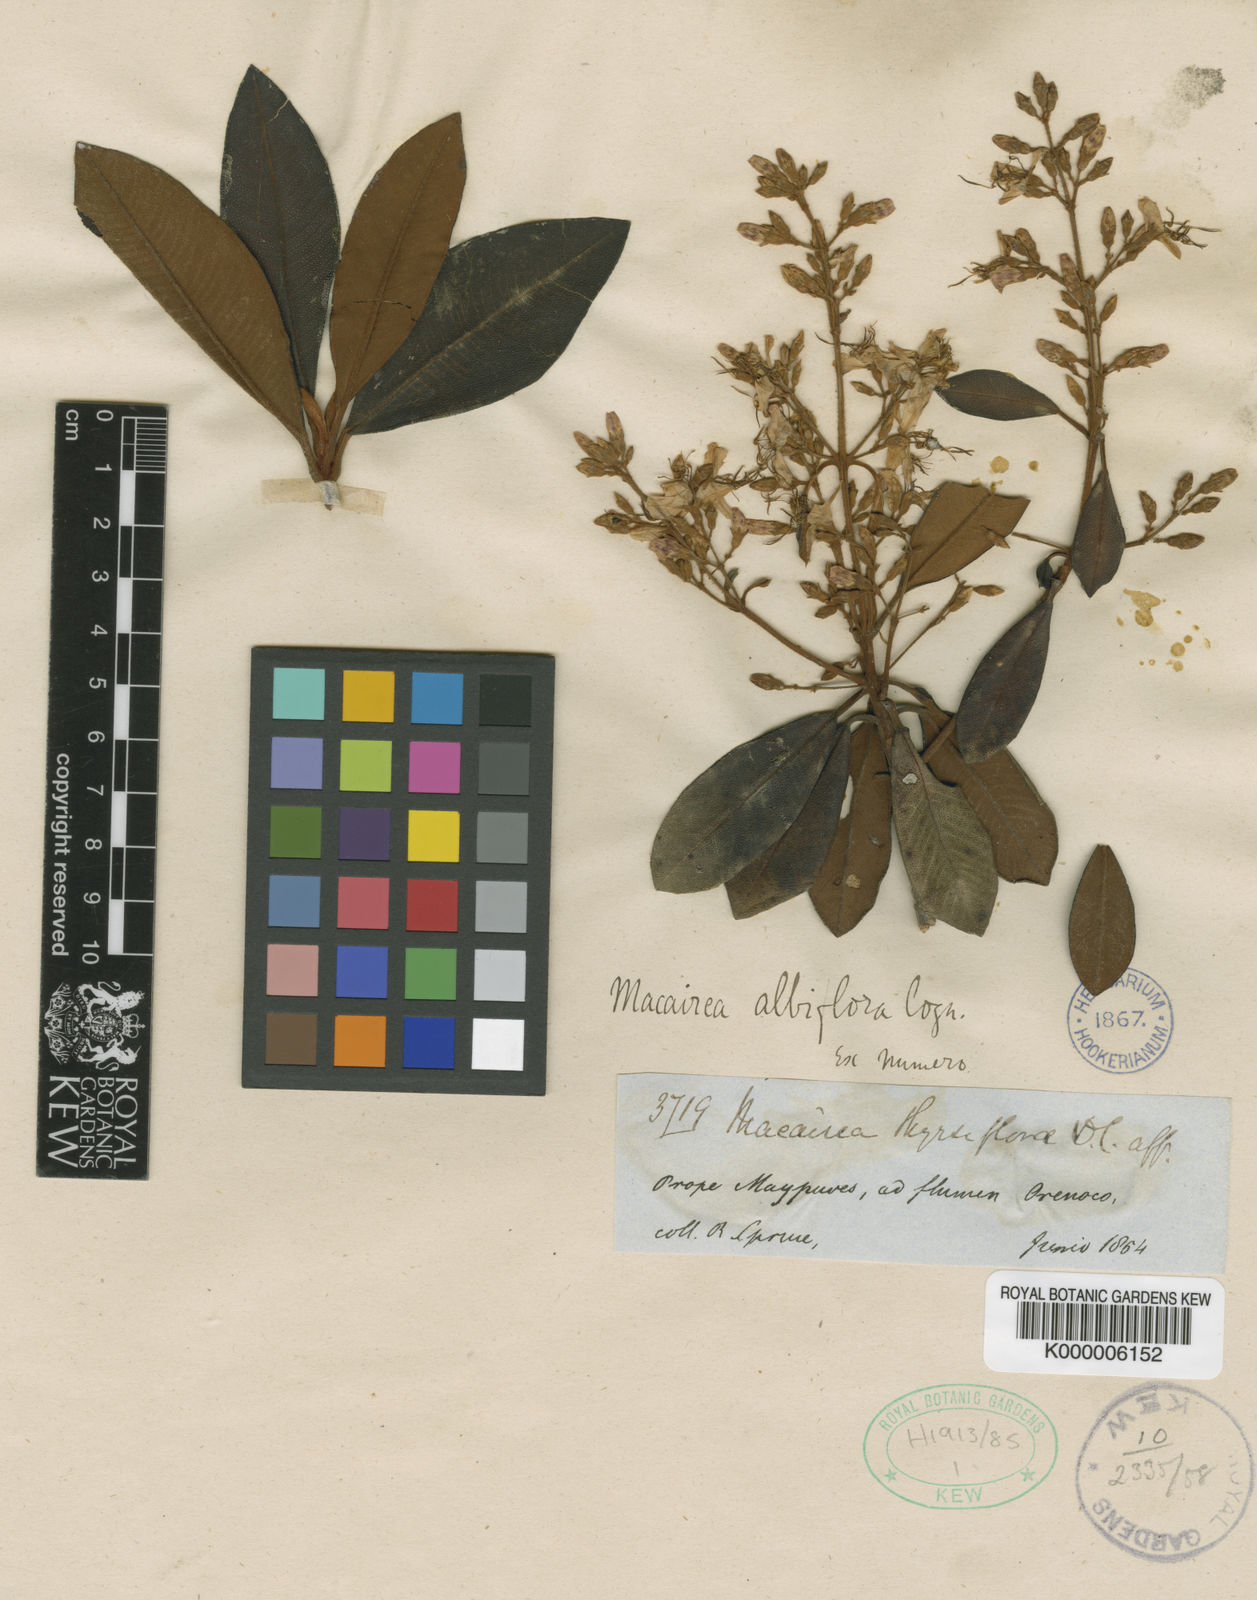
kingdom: Plantae
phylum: Tracheophyta
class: Magnoliopsida
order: Myrtales
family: Melastomataceae
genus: Macairea
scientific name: Macairea thyrsiflora
